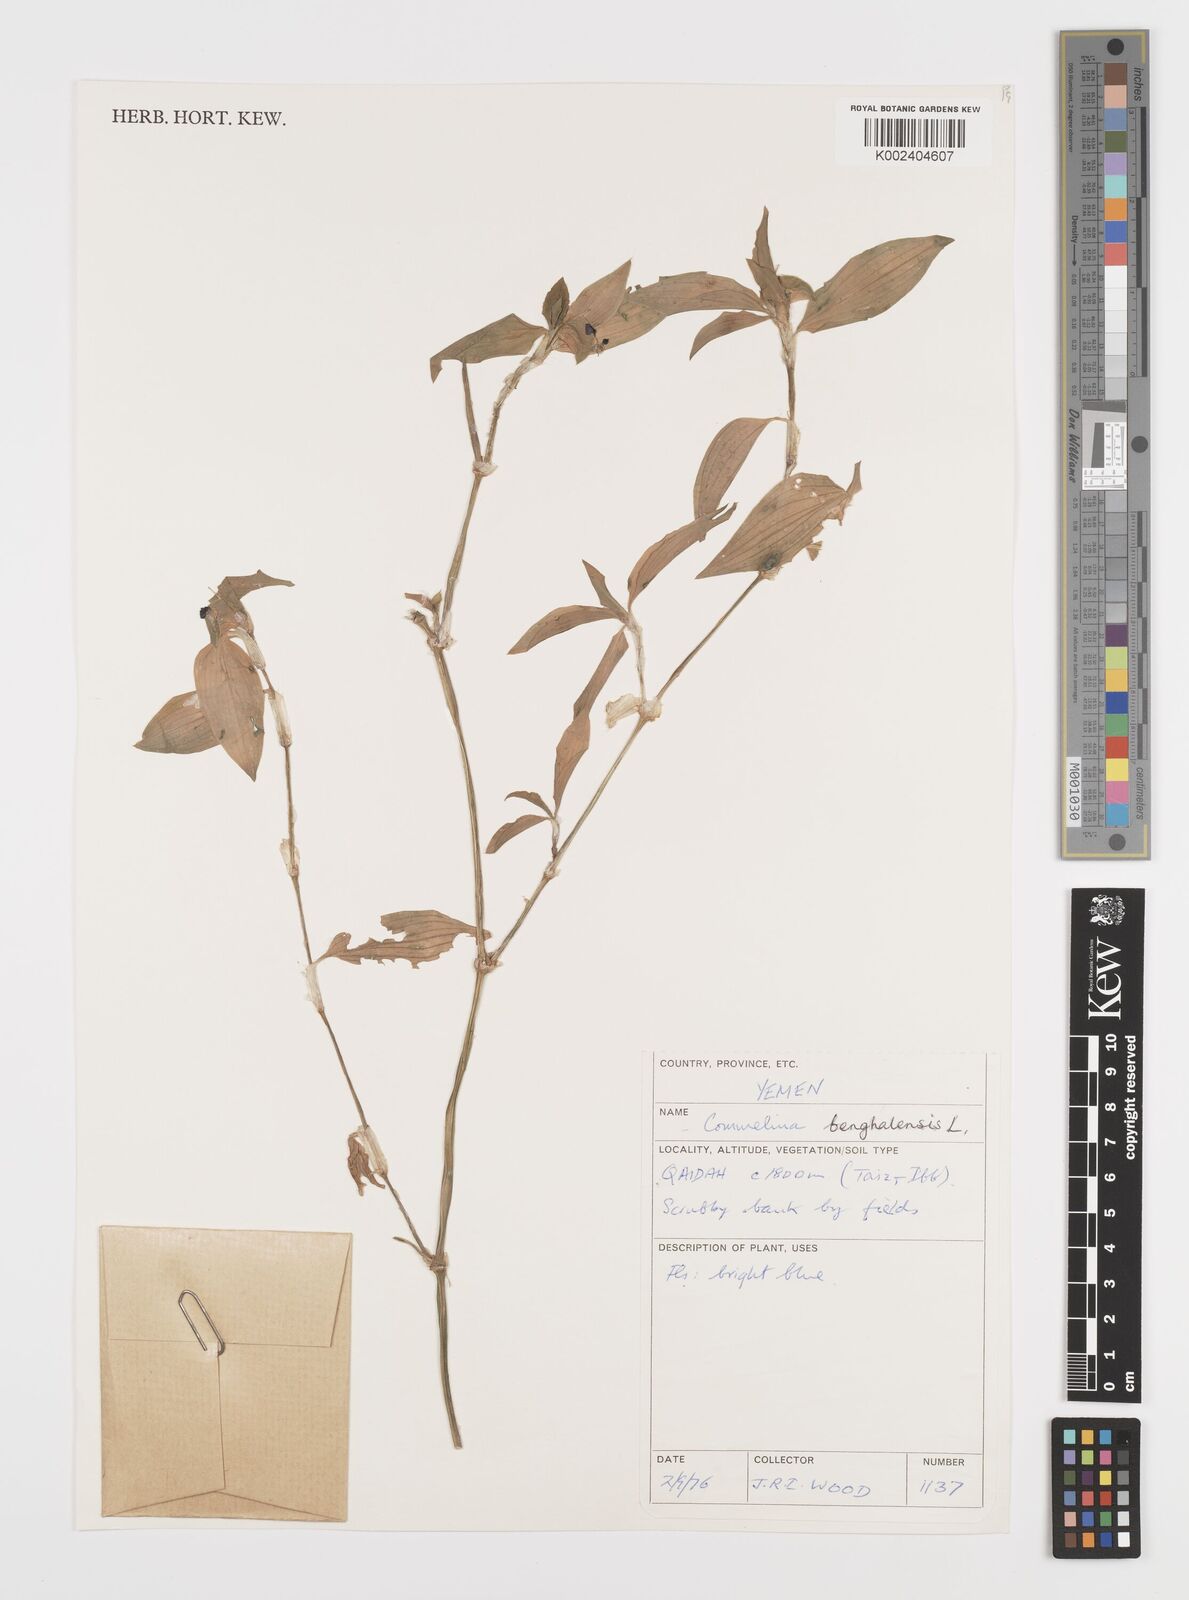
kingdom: Plantae
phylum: Tracheophyta
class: Liliopsida
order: Commelinales
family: Commelinaceae
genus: Commelina
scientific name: Commelina benghalensis
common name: Jio
